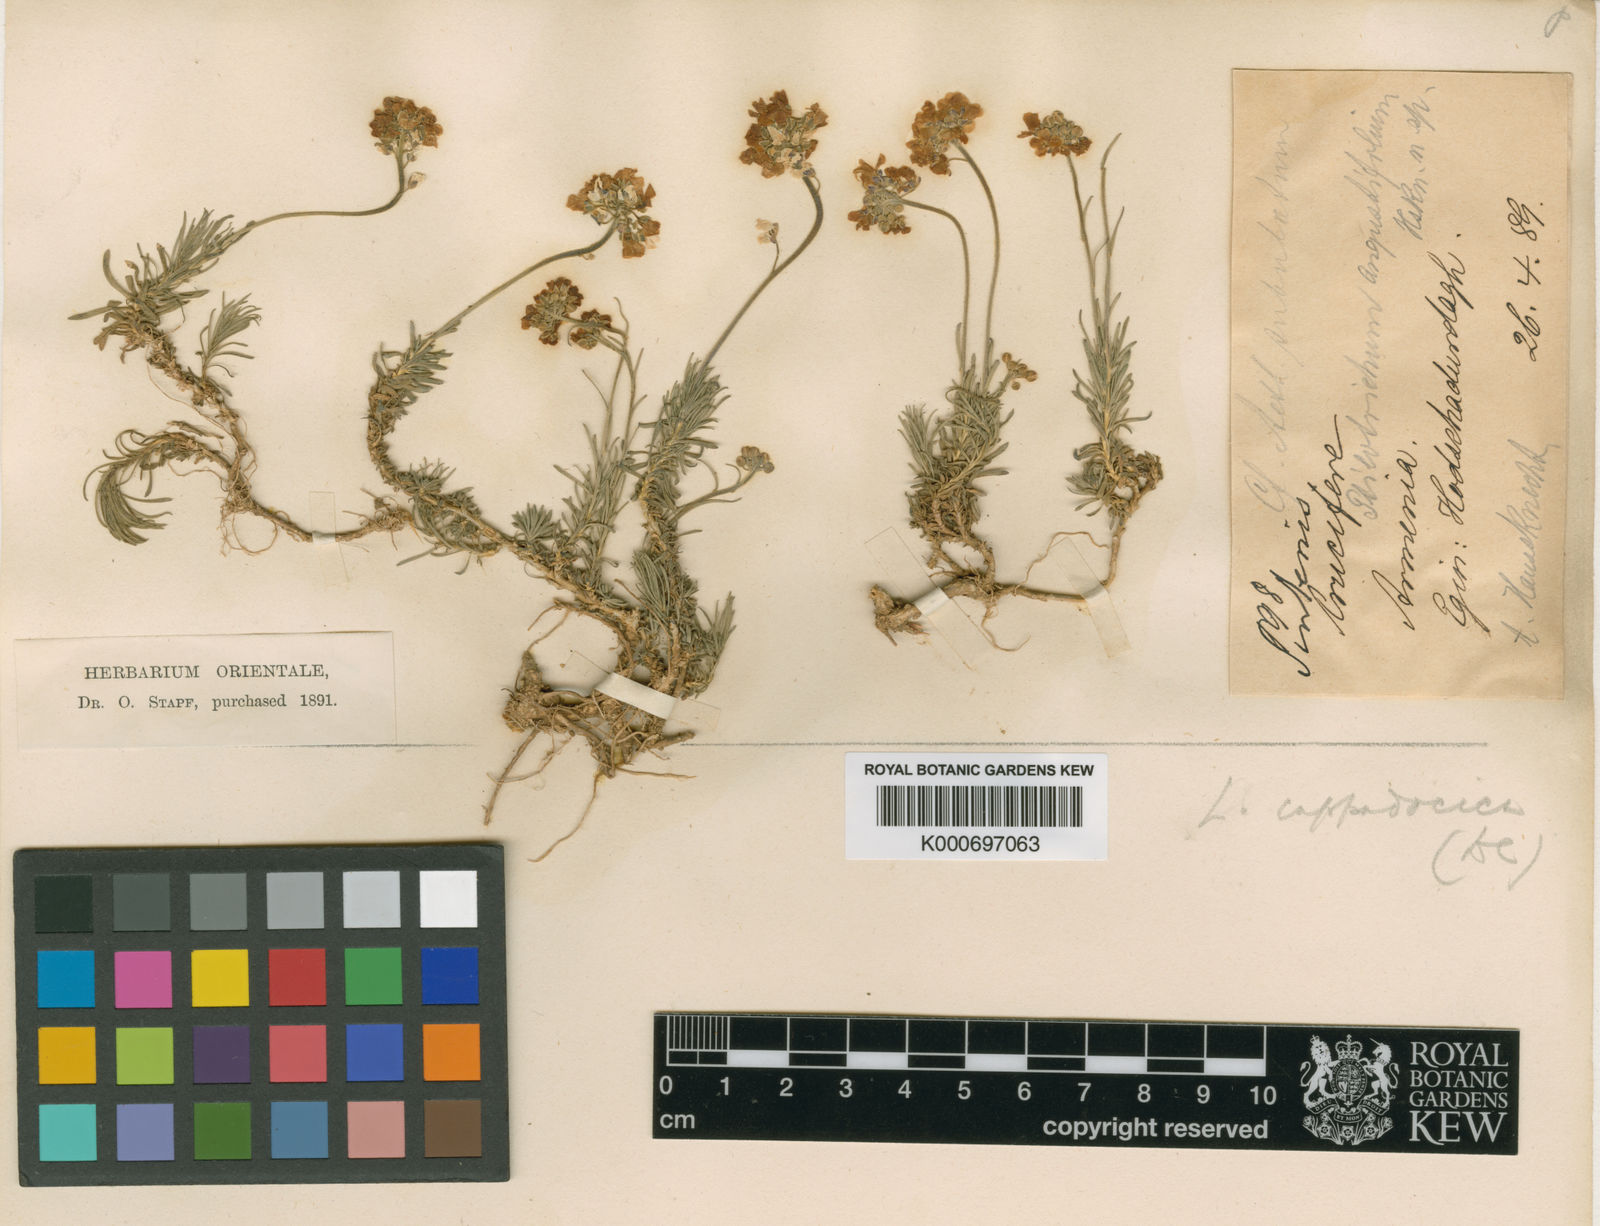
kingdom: Plantae
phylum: Tracheophyta
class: Magnoliopsida
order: Brassicales
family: Brassicaceae
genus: Bornmuellera
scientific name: Bornmuellera angustifolia
